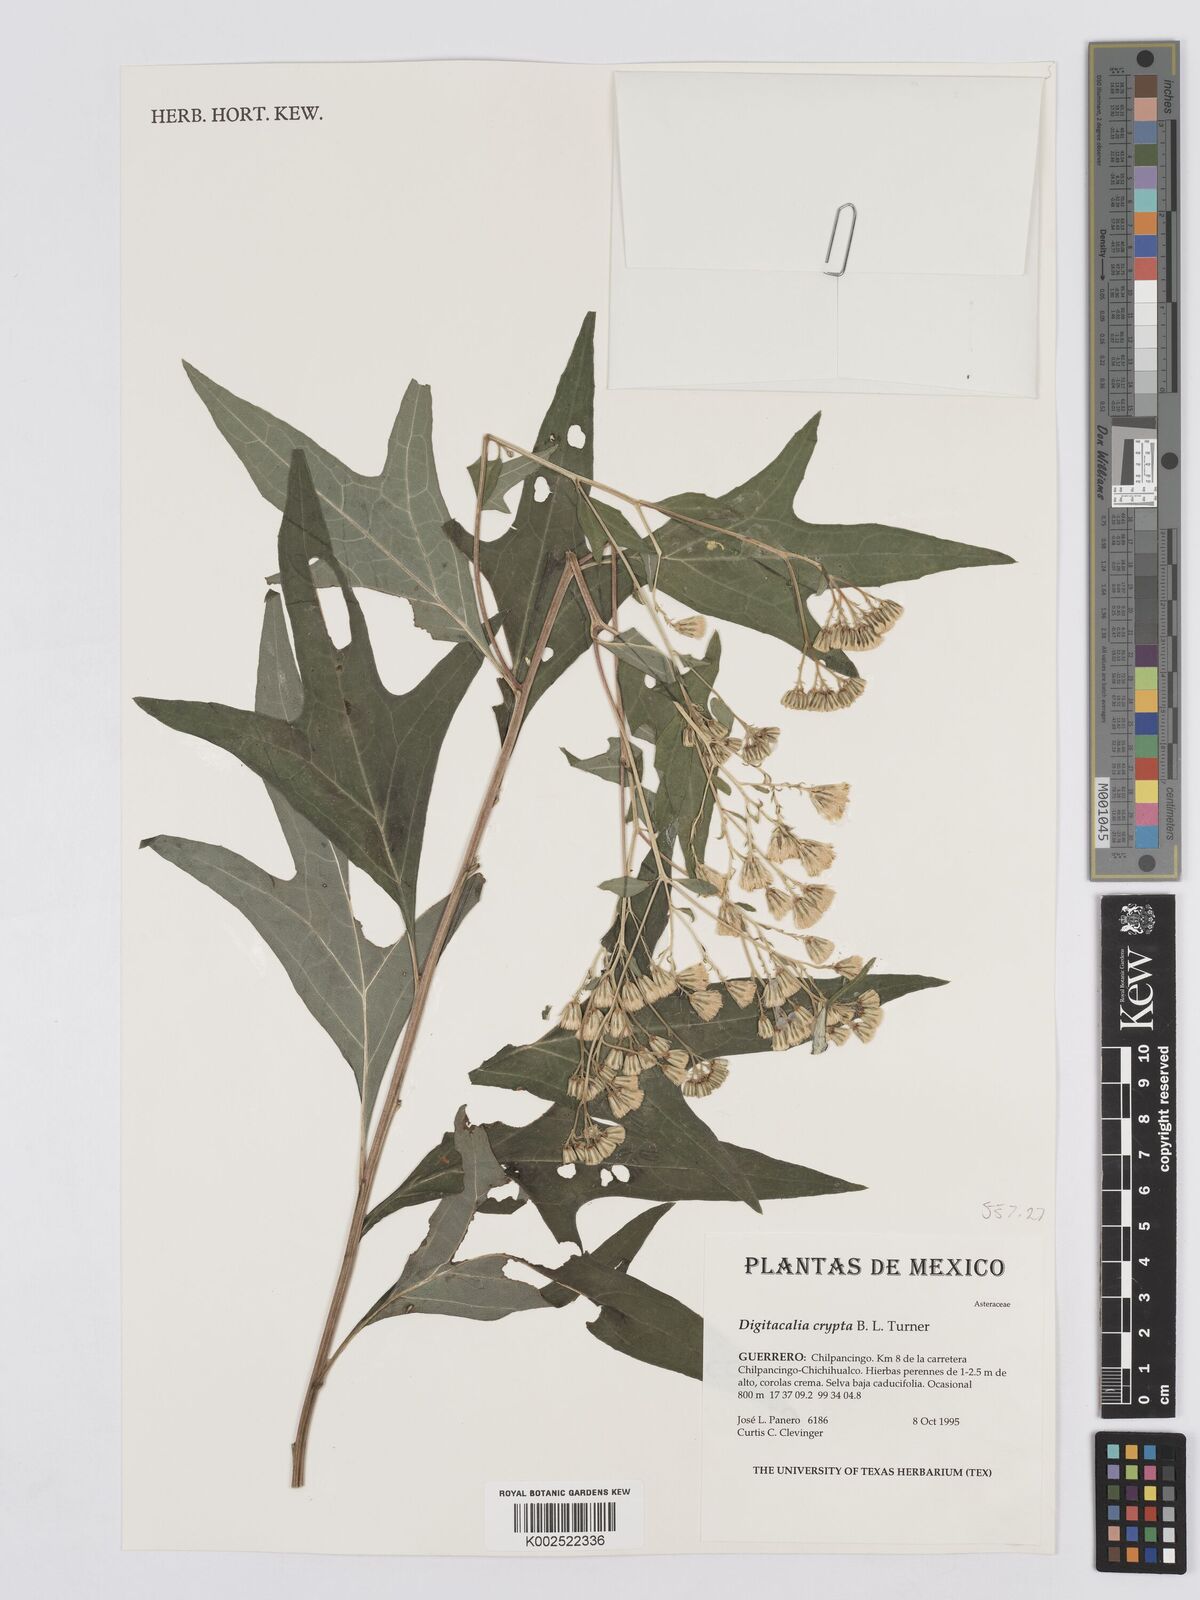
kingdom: Plantae
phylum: Tracheophyta
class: Magnoliopsida
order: Asterales
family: Asteraceae
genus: Digitacalia
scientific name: Digitacalia tridactylitis
